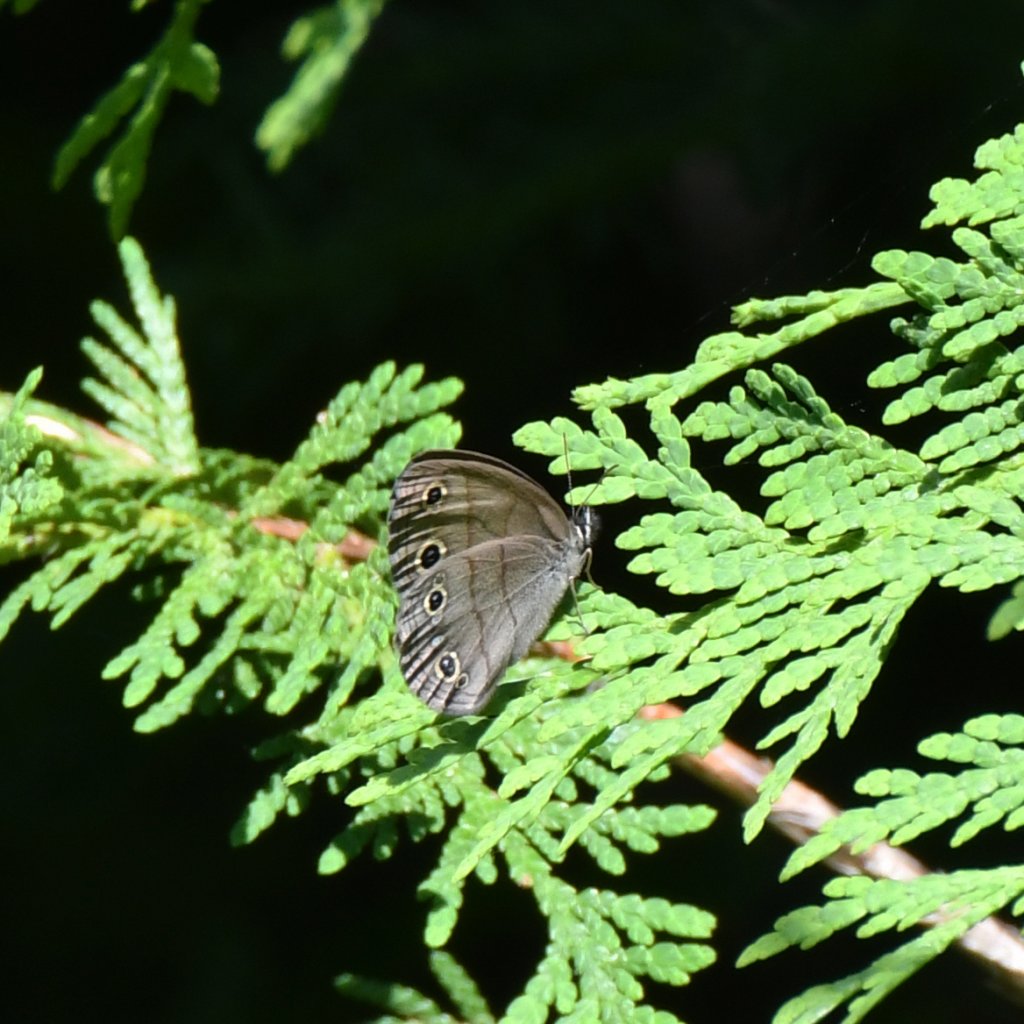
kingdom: Animalia
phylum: Arthropoda
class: Insecta
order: Lepidoptera
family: Nymphalidae
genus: Euptychia
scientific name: Euptychia cymela
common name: Little Wood Satyr
